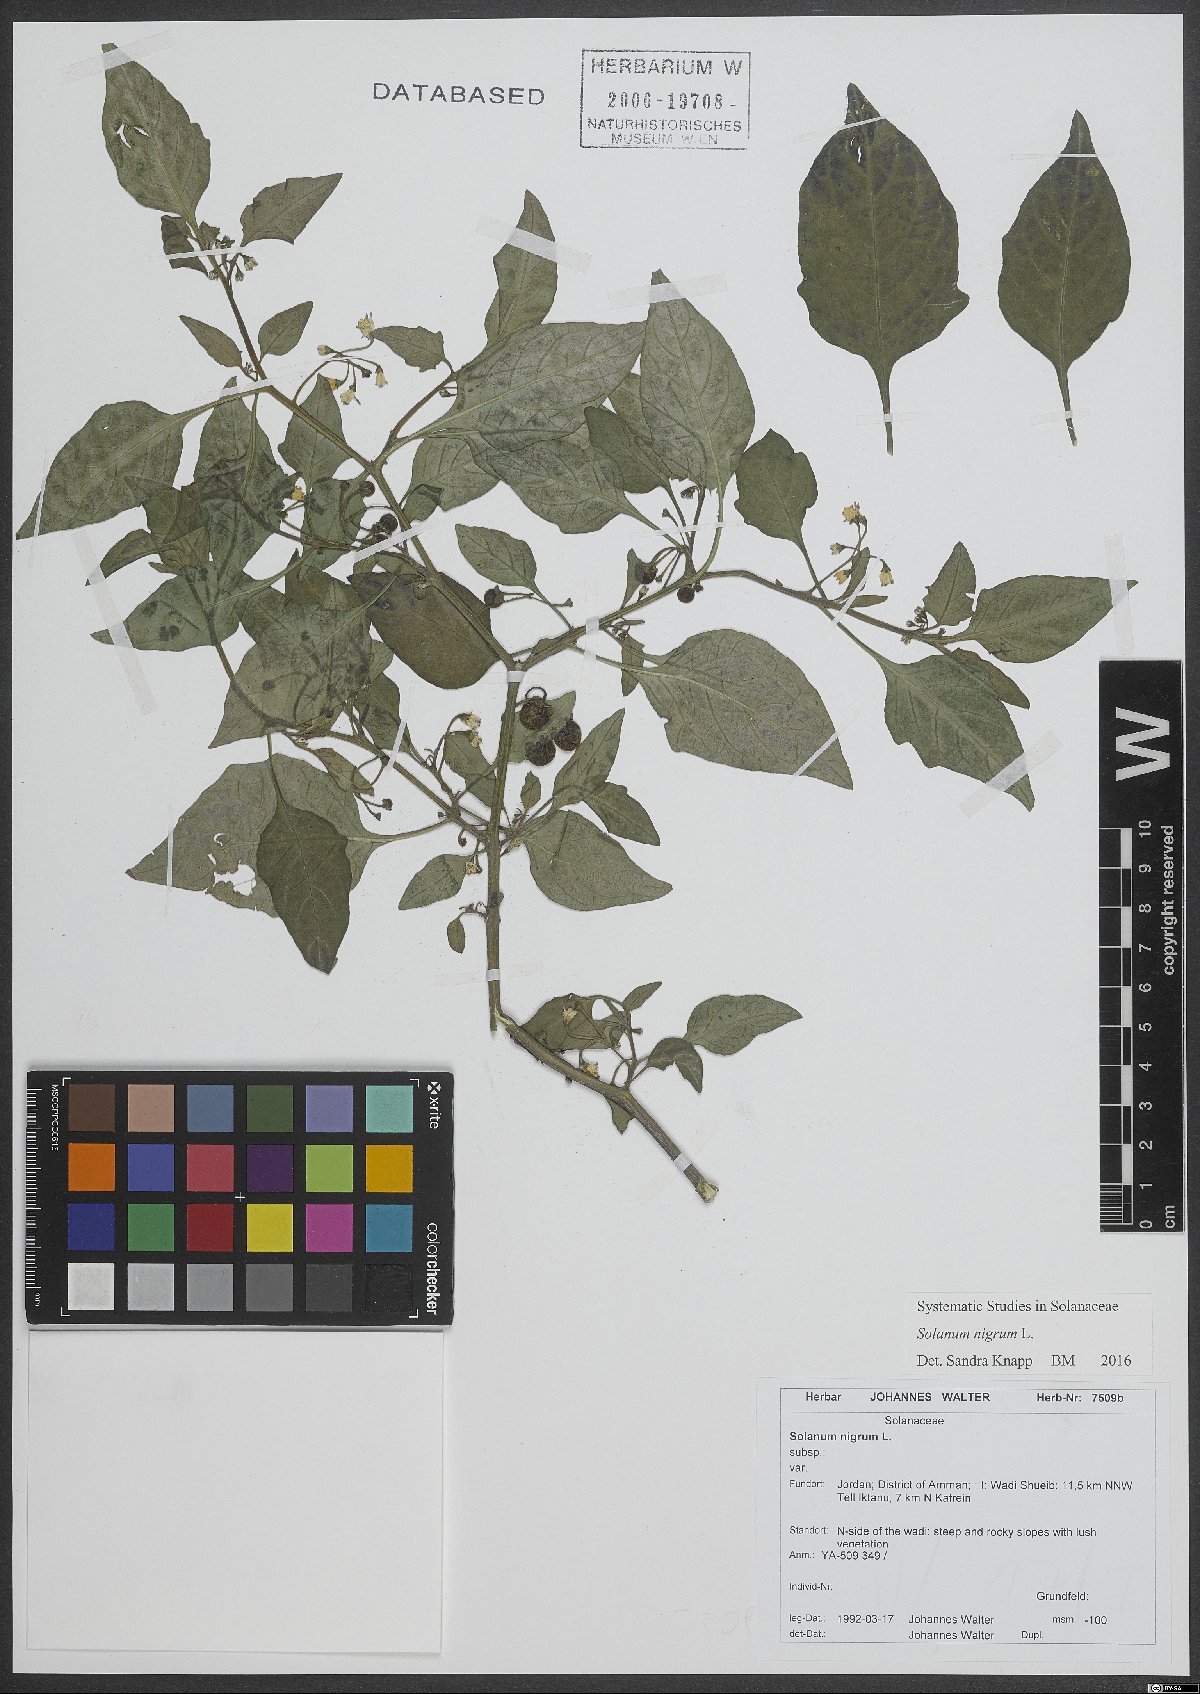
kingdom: Plantae
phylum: Tracheophyta
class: Magnoliopsida
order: Solanales
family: Solanaceae
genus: Solanum
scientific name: Solanum nigrum
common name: Black nightshade
